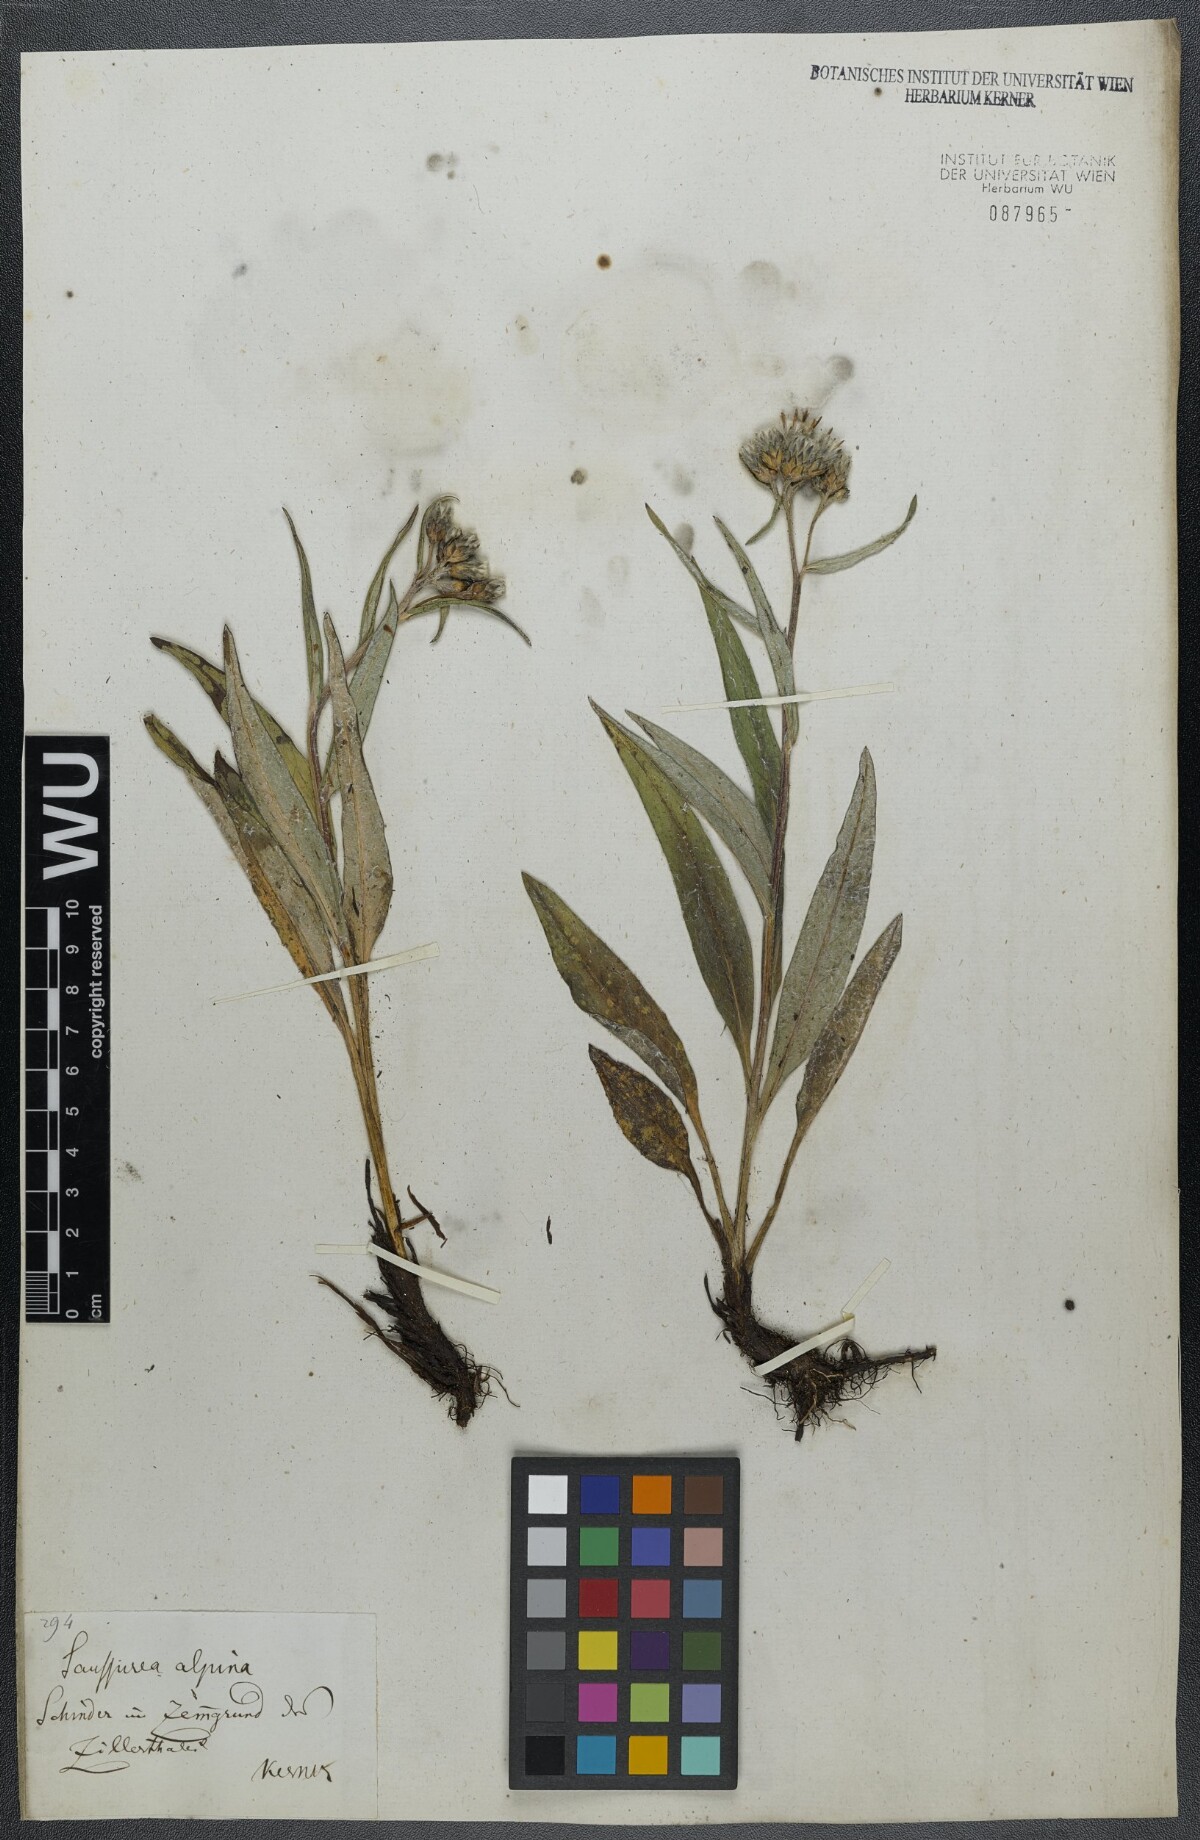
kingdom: Plantae
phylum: Tracheophyta
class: Magnoliopsida
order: Asterales
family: Asteraceae
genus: Saussurea
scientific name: Saussurea alpina
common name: Alpine saw-wort
